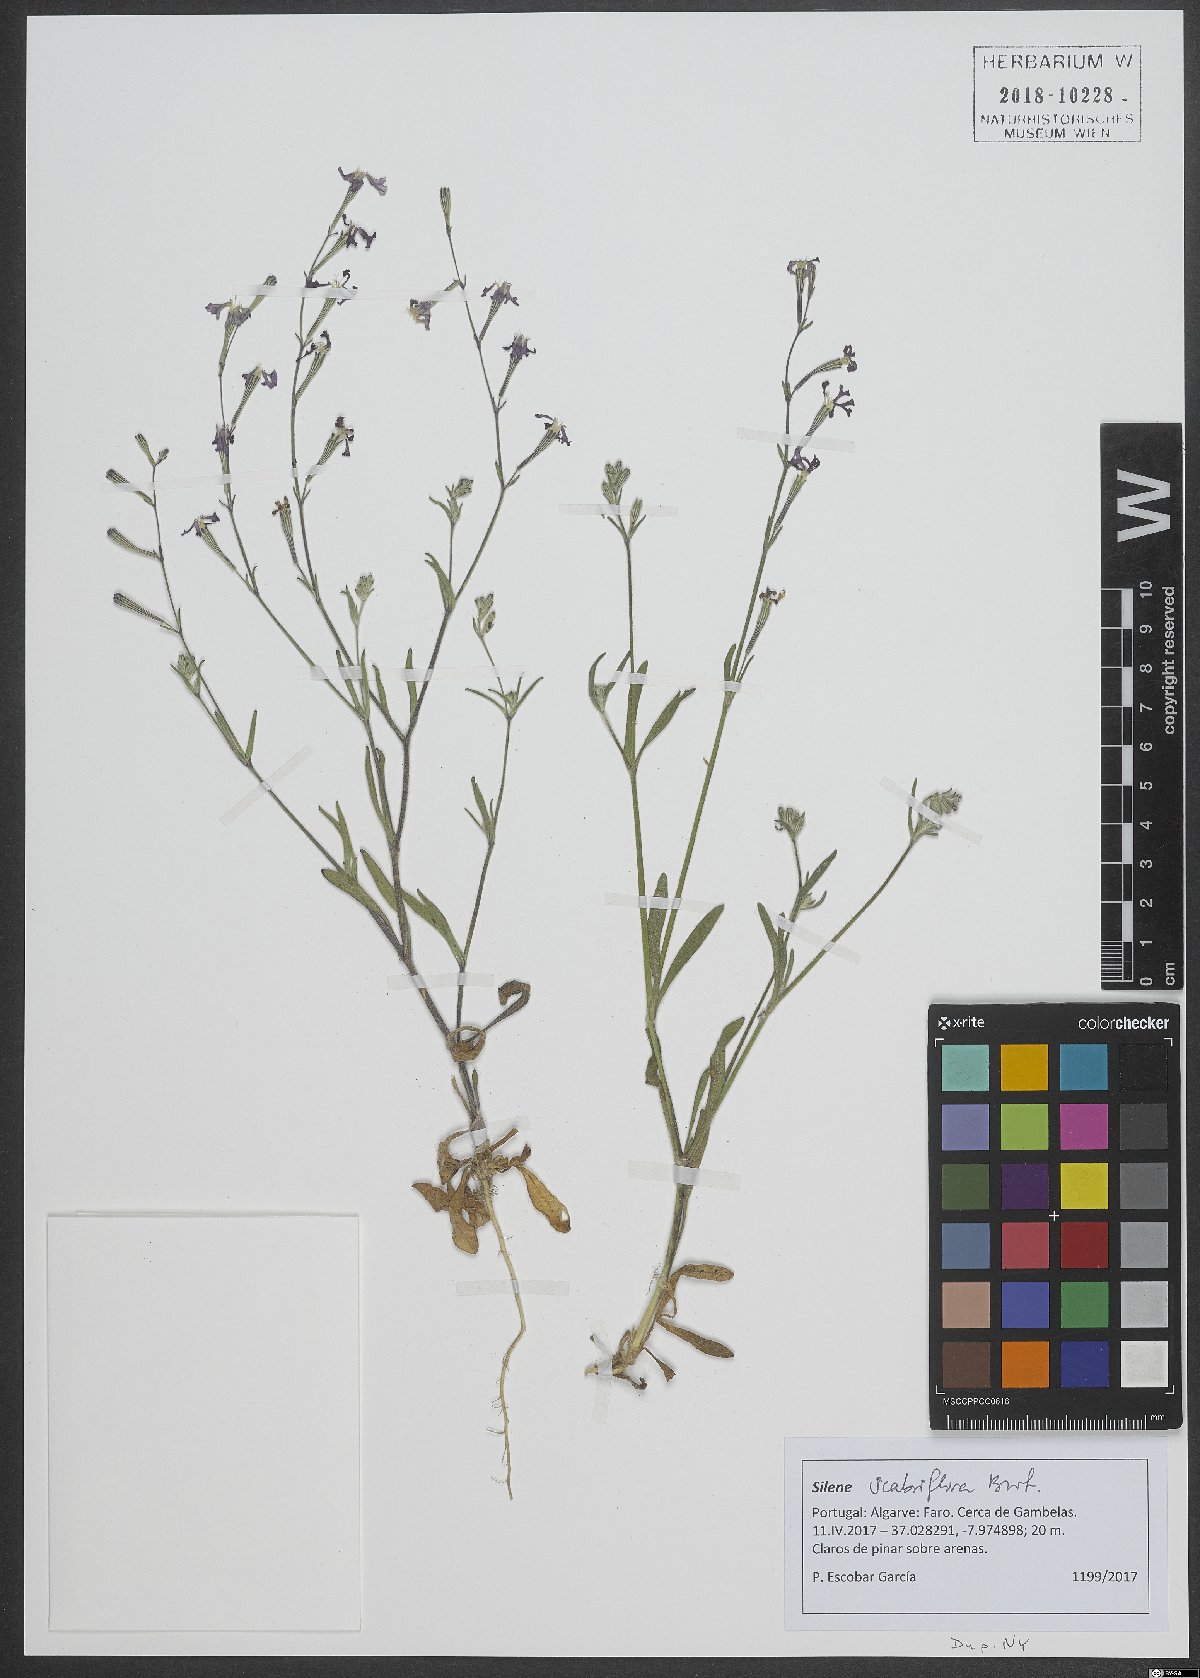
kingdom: Plantae
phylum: Tracheophyta
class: Magnoliopsida
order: Caryophyllales
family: Caryophyllaceae
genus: Silene
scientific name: Silene scabriflora
